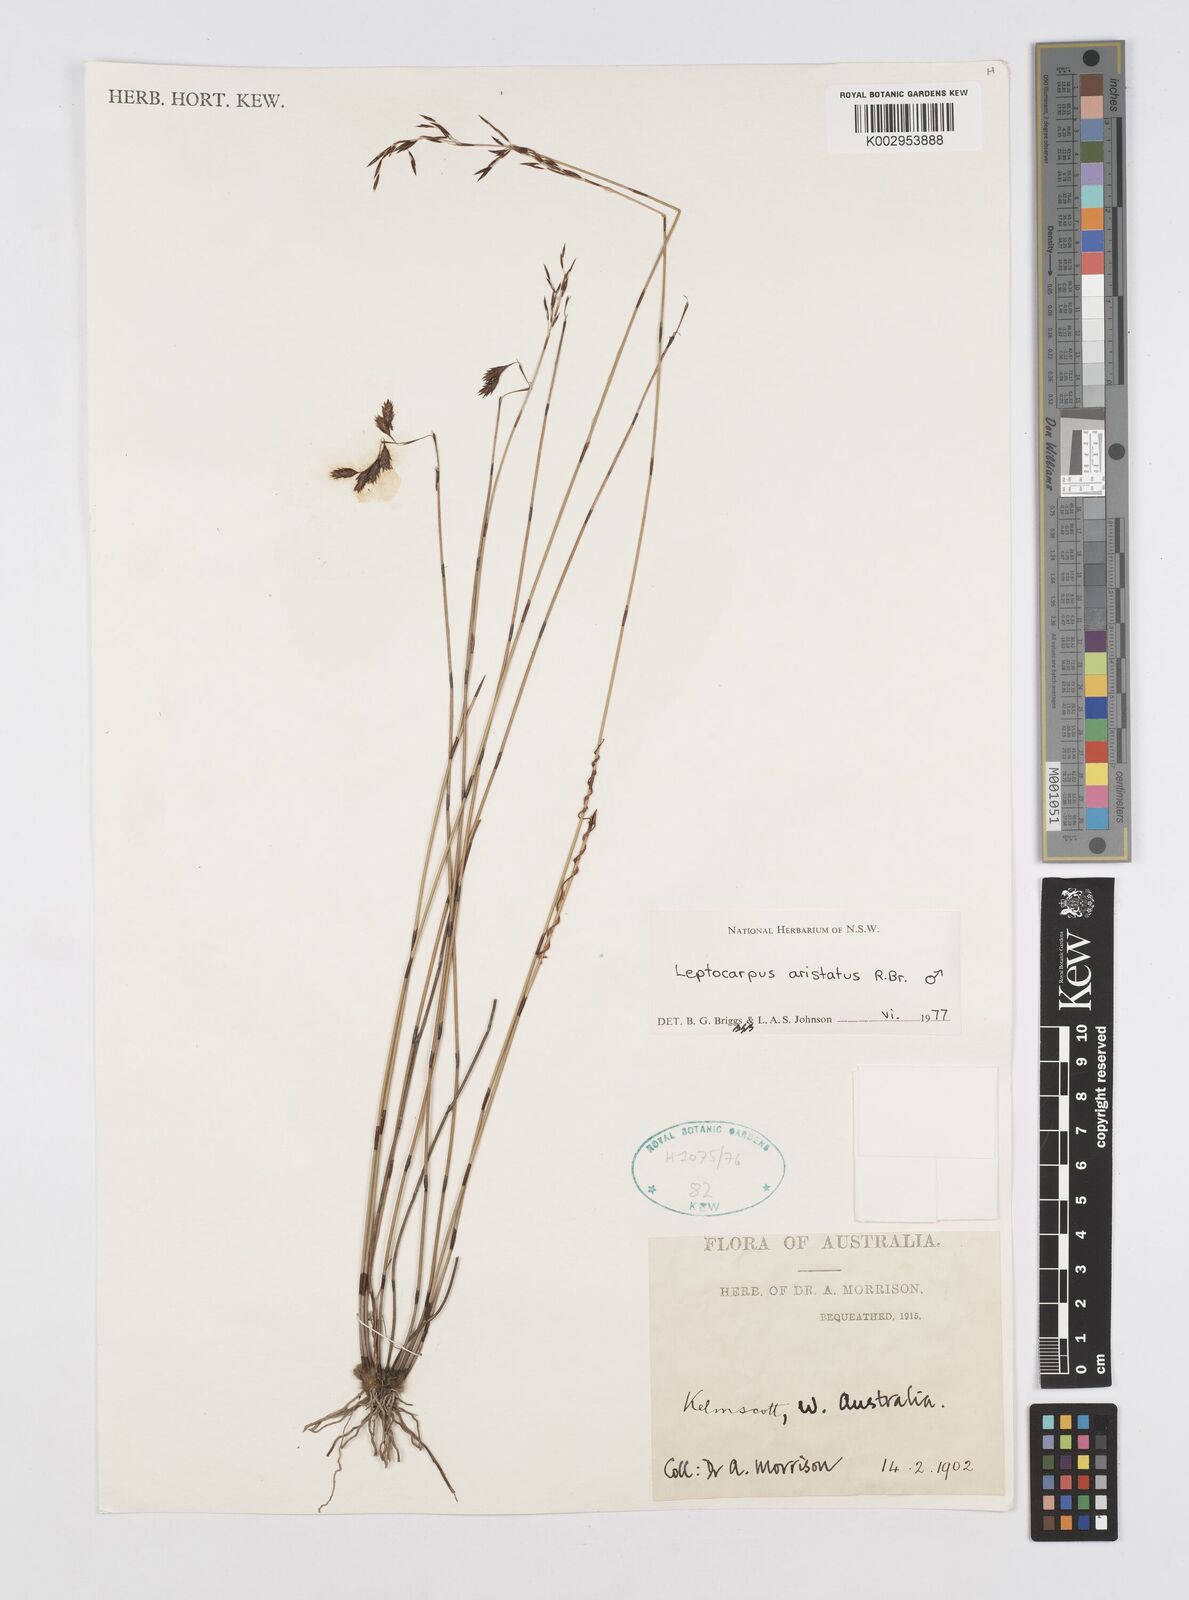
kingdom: Plantae
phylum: Tracheophyta
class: Liliopsida
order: Poales
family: Restionaceae
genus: Chaetanthus
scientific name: Chaetanthus aristatus
